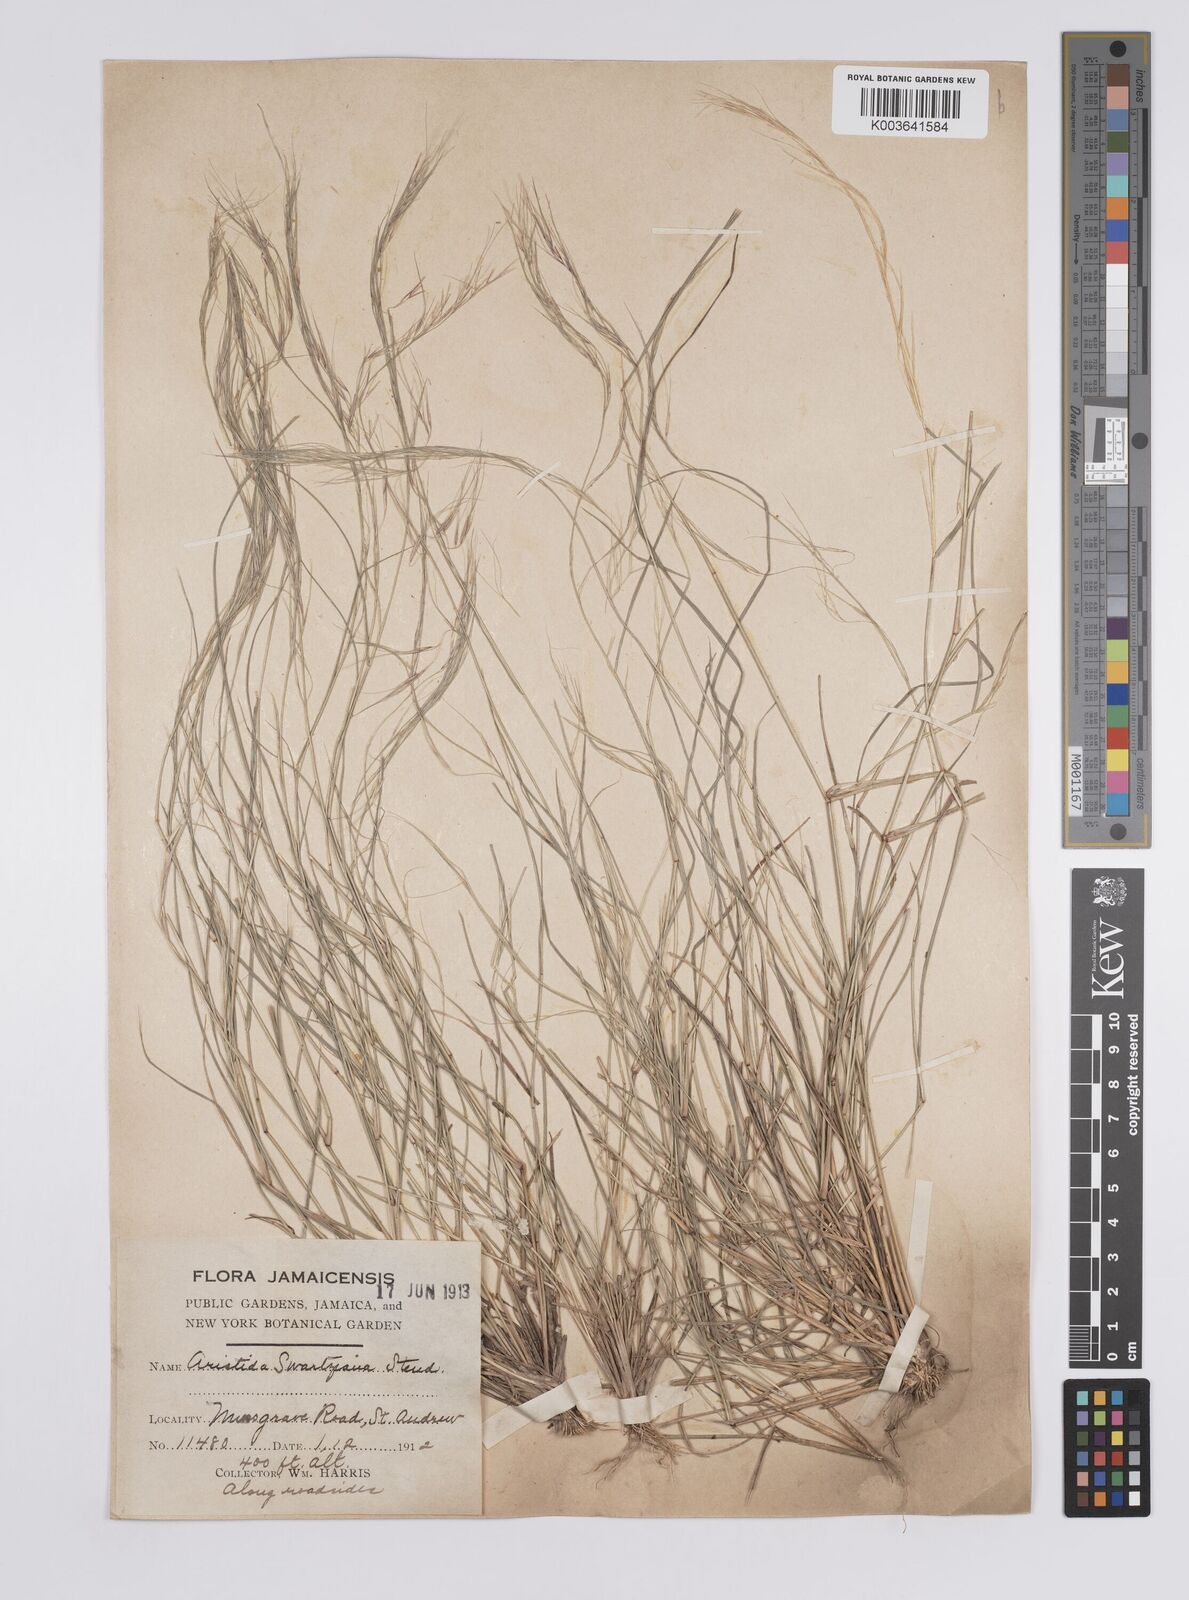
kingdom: Plantae
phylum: Tracheophyta
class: Liliopsida
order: Poales
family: Poaceae
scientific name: Poaceae
